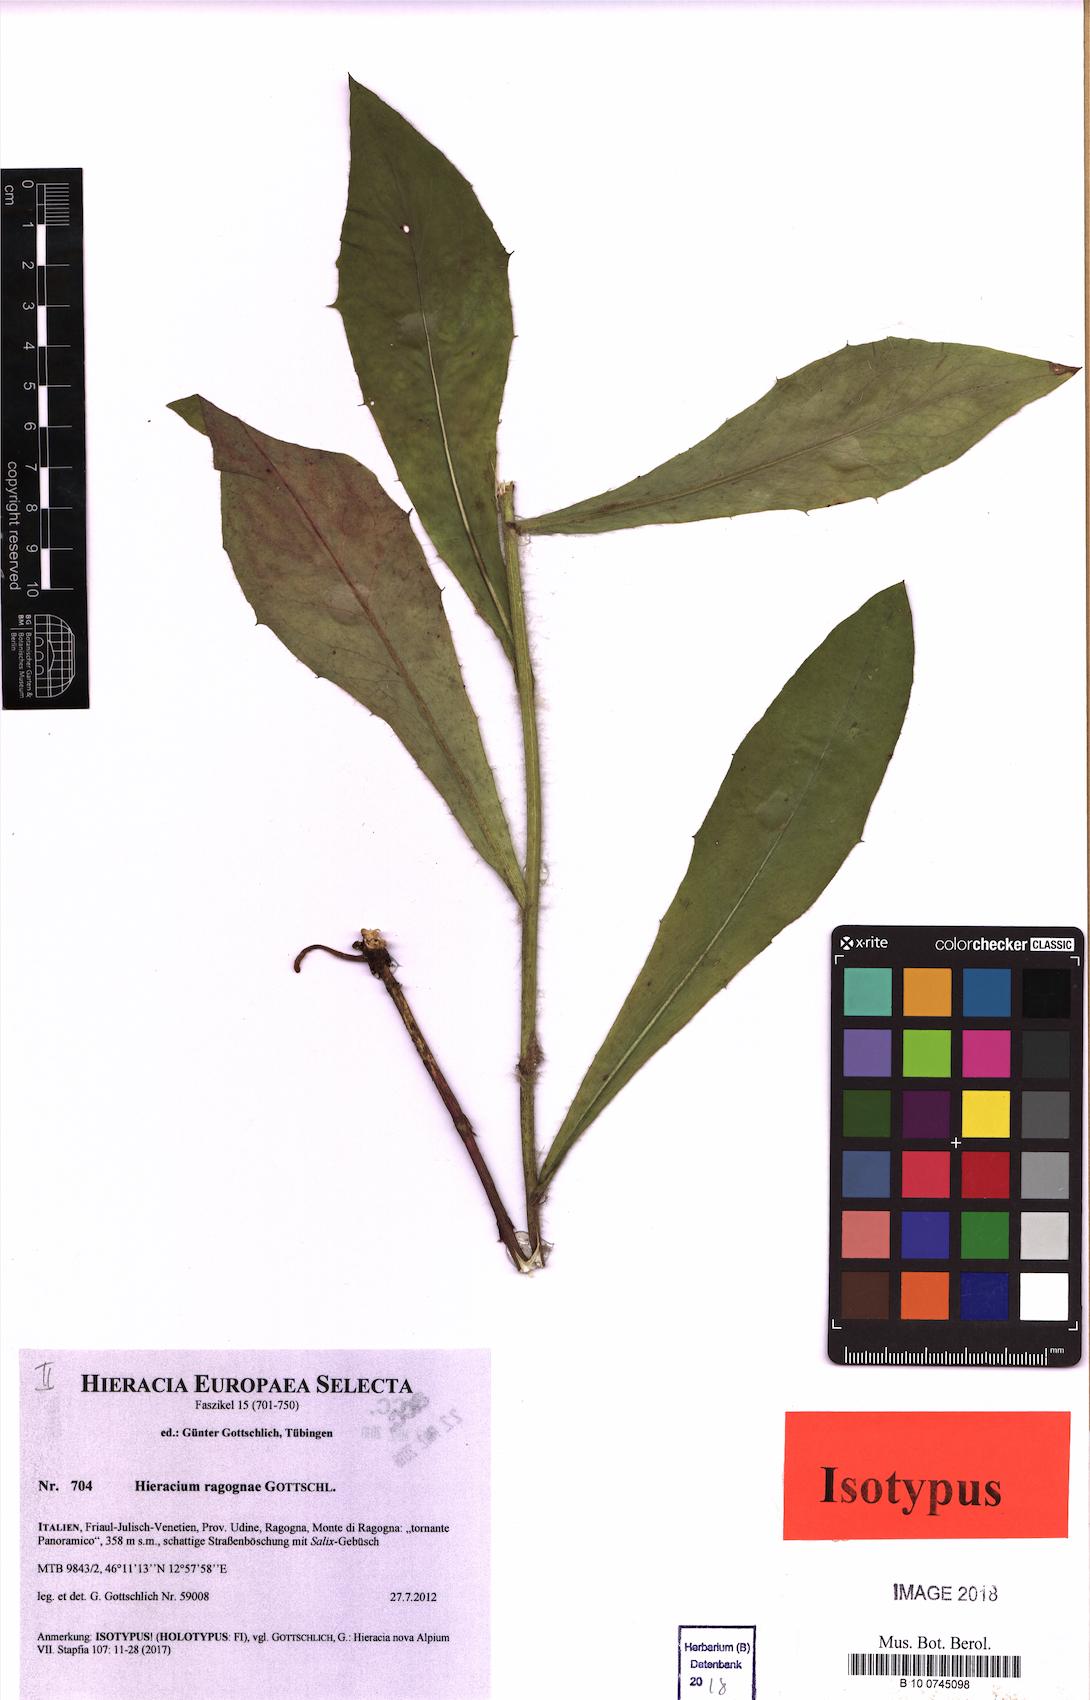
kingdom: Plantae
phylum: Tracheophyta
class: Magnoliopsida
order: Asterales
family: Asteraceae
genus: Hieracium
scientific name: Hieracium ragognae
